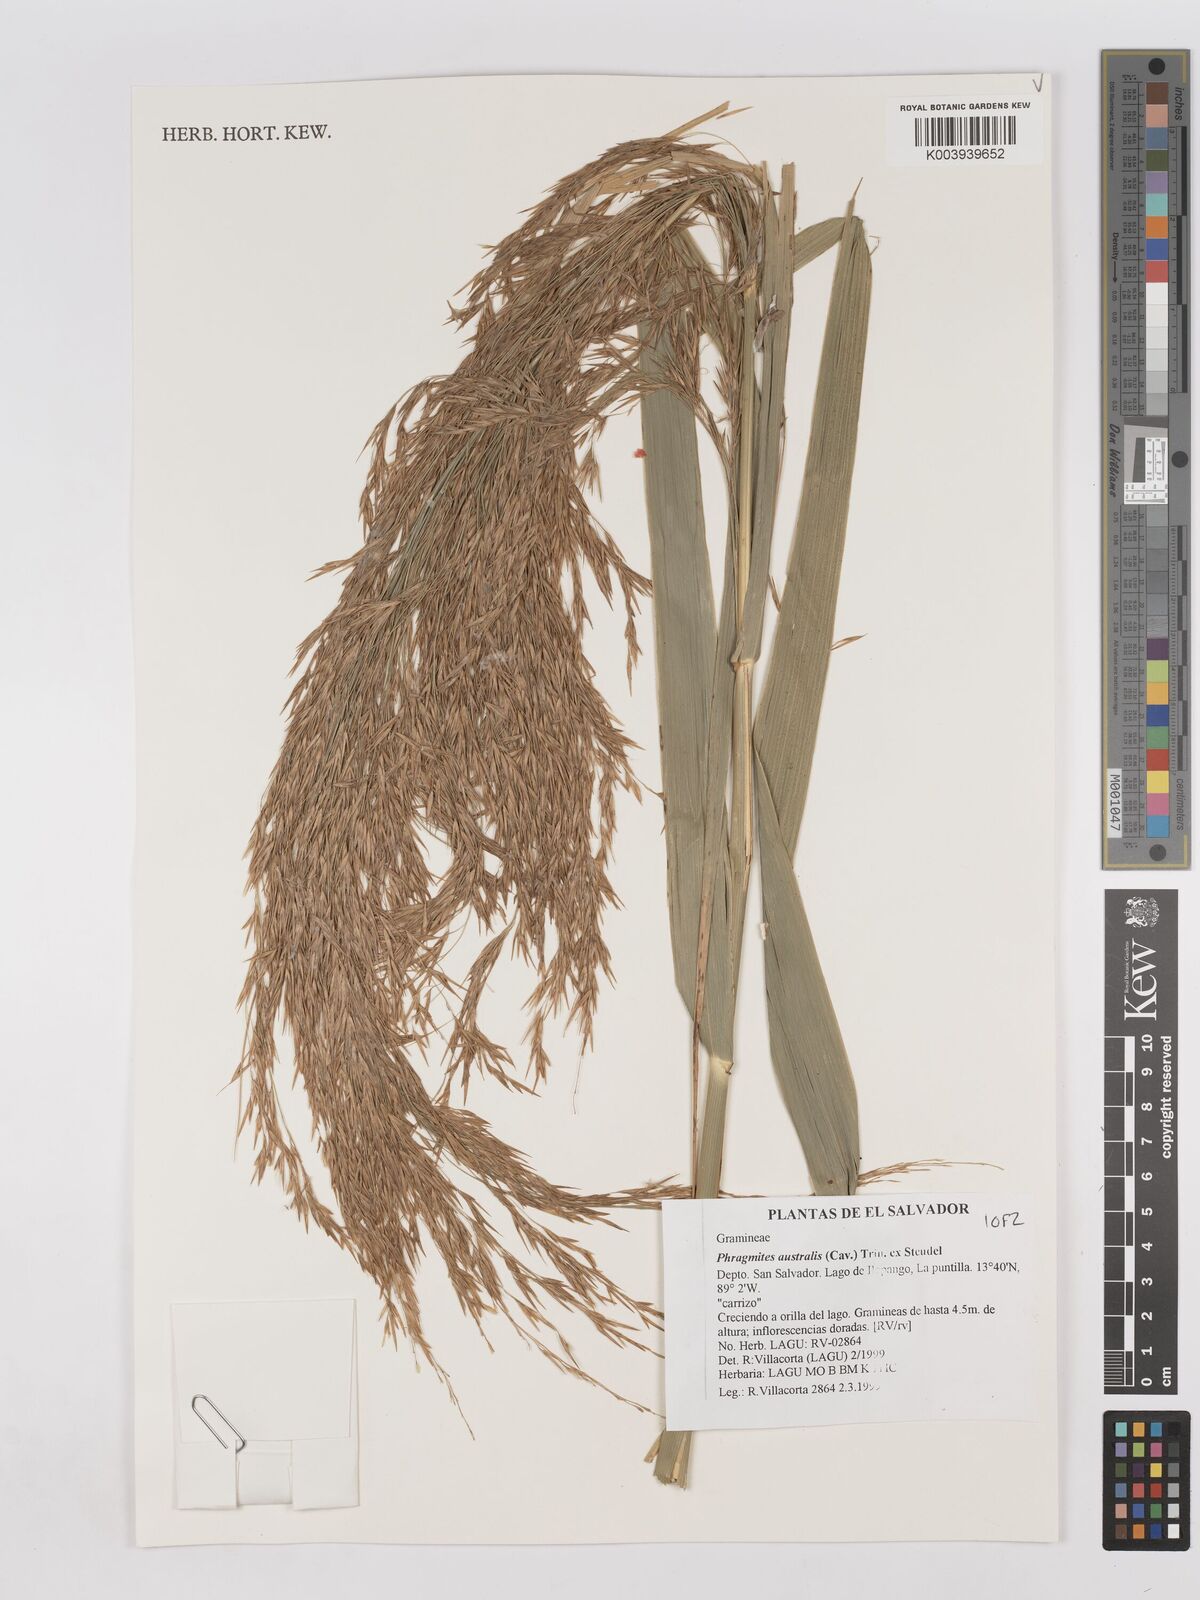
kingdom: Plantae
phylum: Tracheophyta
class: Liliopsida
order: Poales
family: Poaceae
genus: Phragmites
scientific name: Phragmites australis
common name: Common reed
